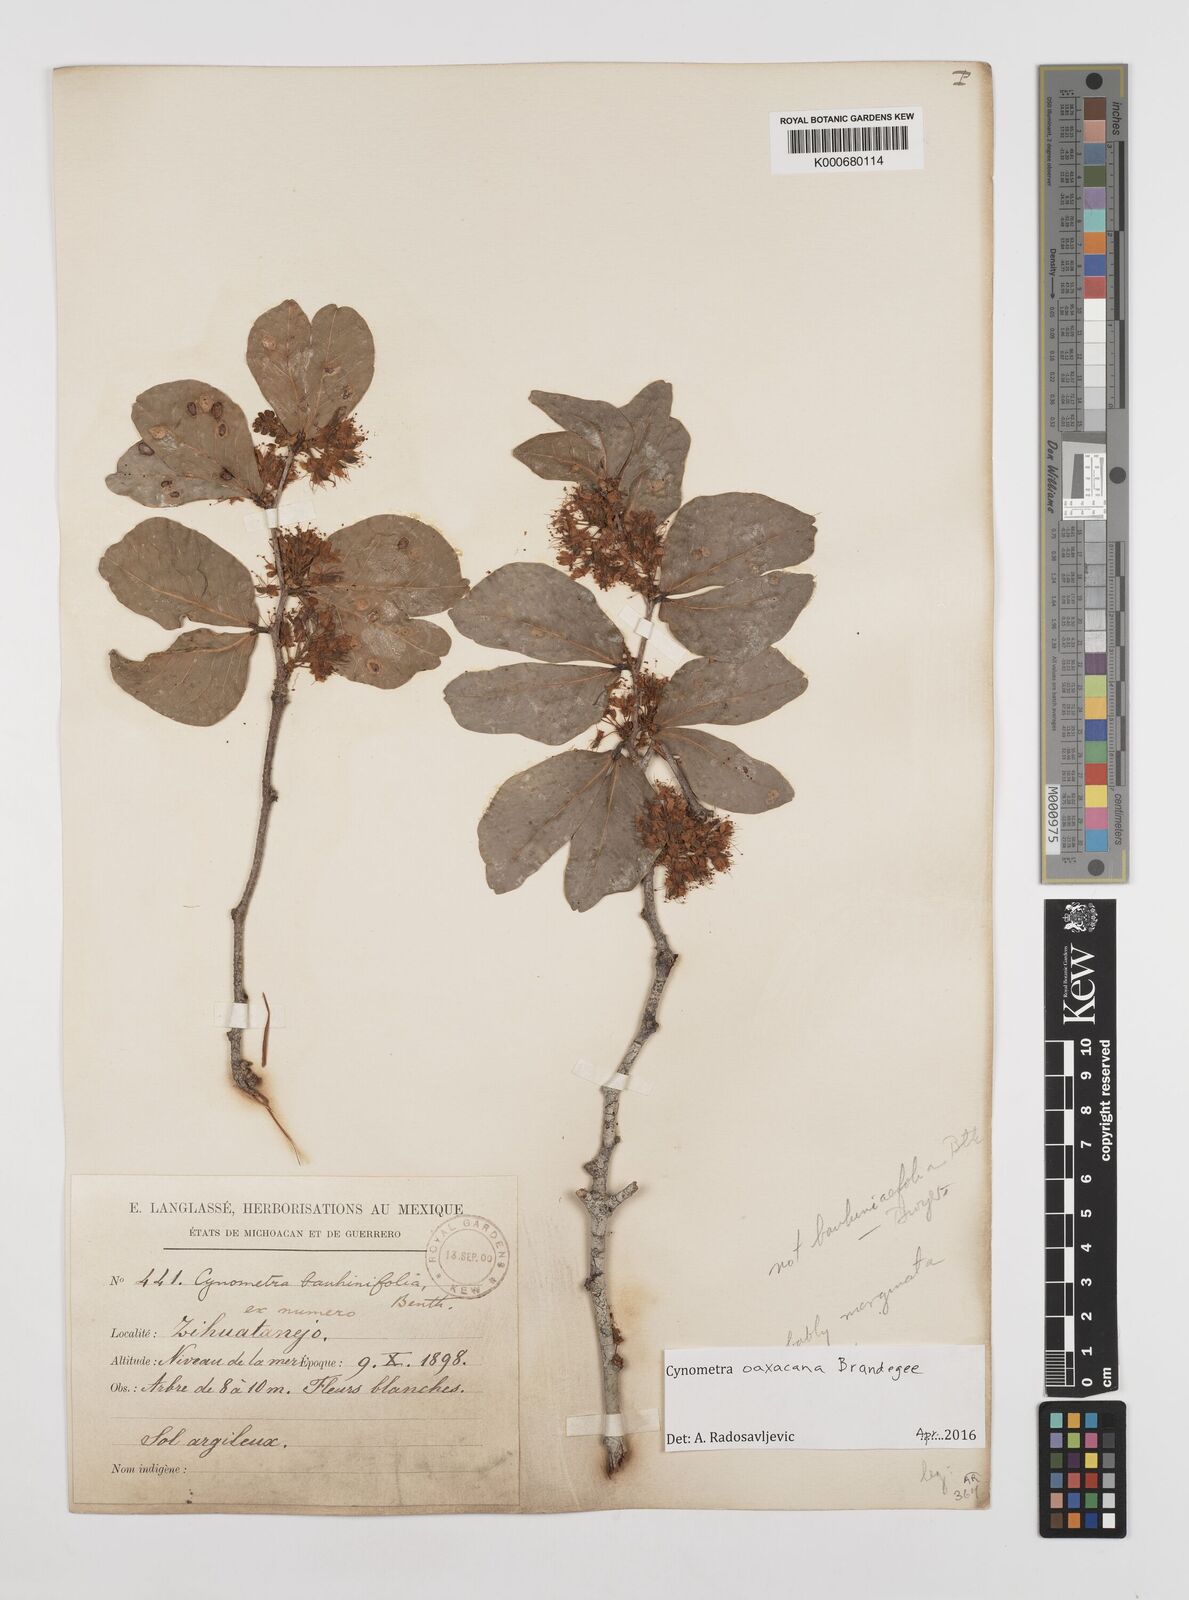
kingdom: Plantae
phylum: Tracheophyta
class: Magnoliopsida
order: Fabales
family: Fabaceae
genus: Cynometra
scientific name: Cynometra oaxacana
